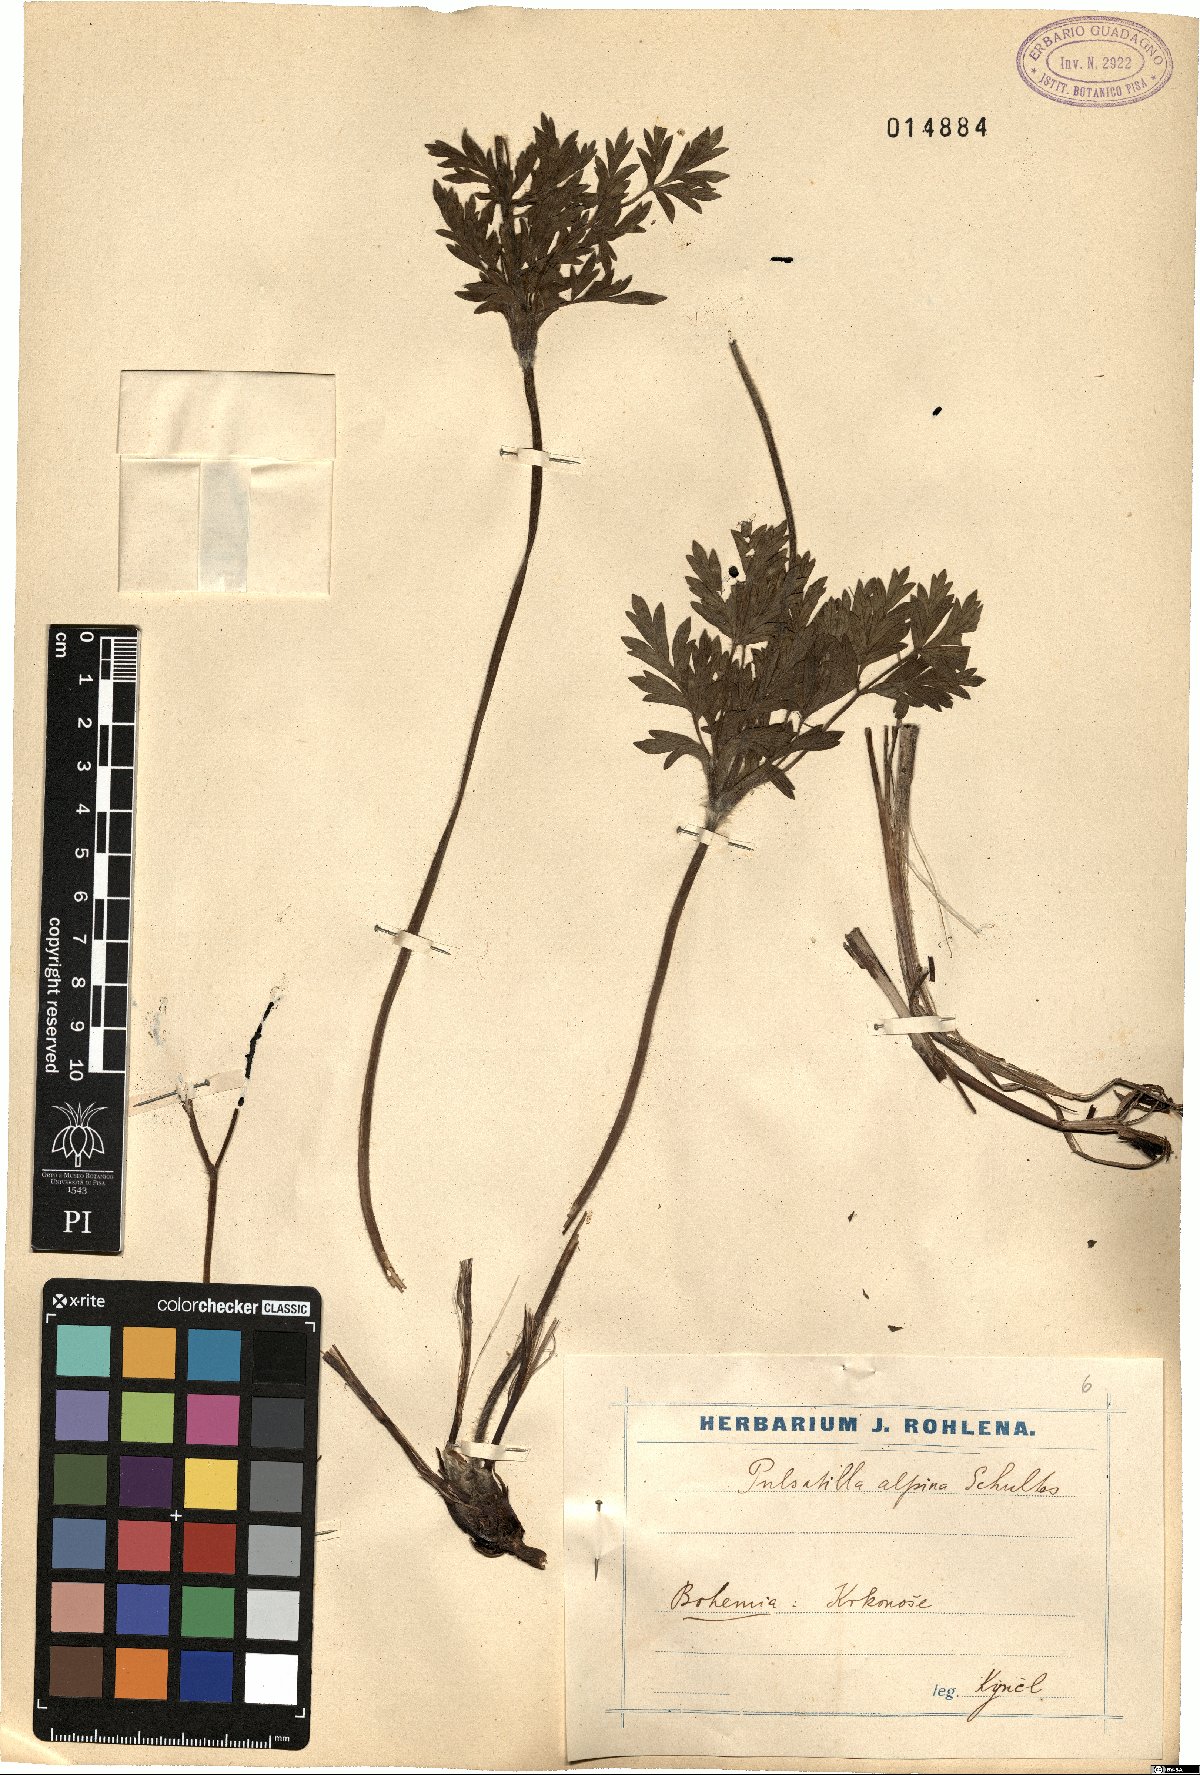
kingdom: Plantae
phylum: Tracheophyta
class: Magnoliopsida
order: Ranunculales
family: Ranunculaceae
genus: Pulsatilla
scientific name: Pulsatilla alpina
